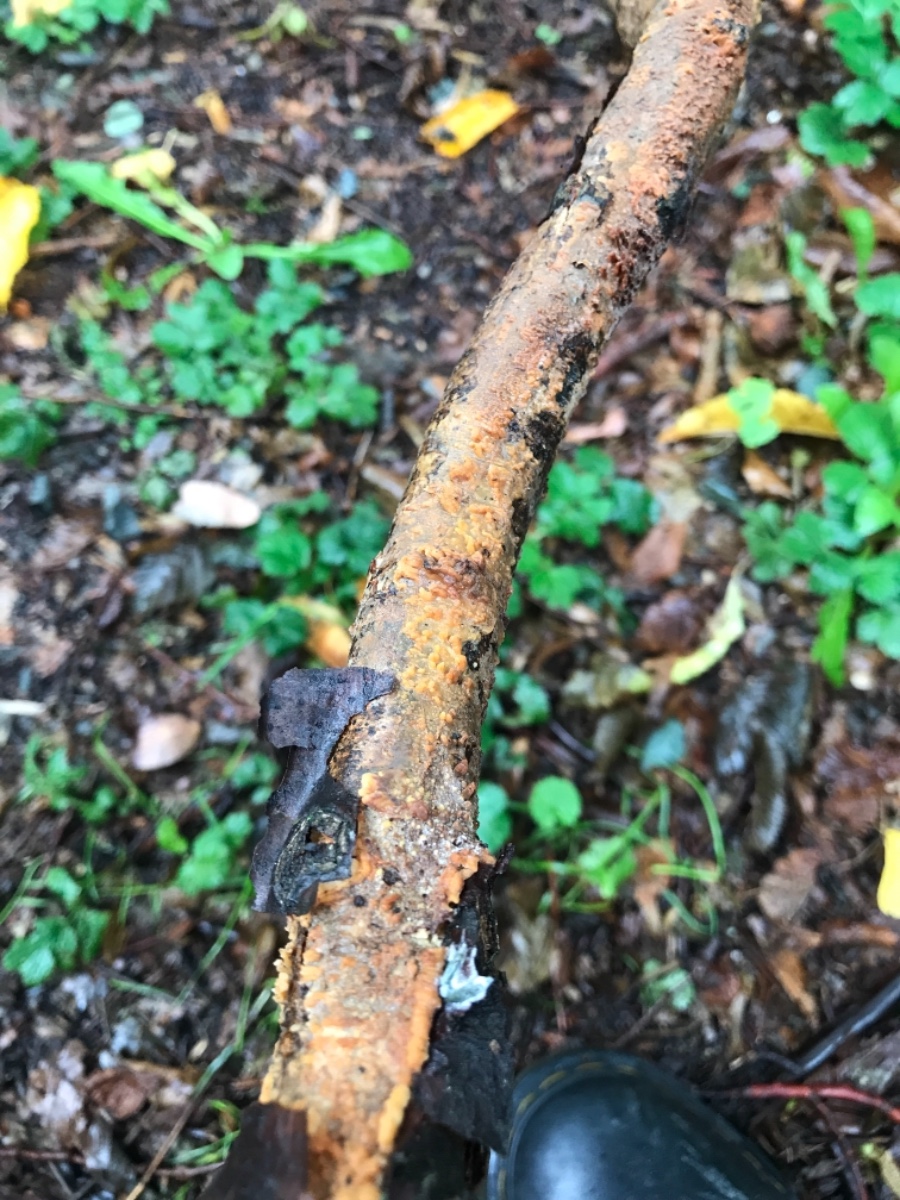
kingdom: Fungi
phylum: Basidiomycota
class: Agaricomycetes
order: Russulales
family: Peniophoraceae
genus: Peniophora
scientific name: Peniophora laeta
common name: tandet voksskind
